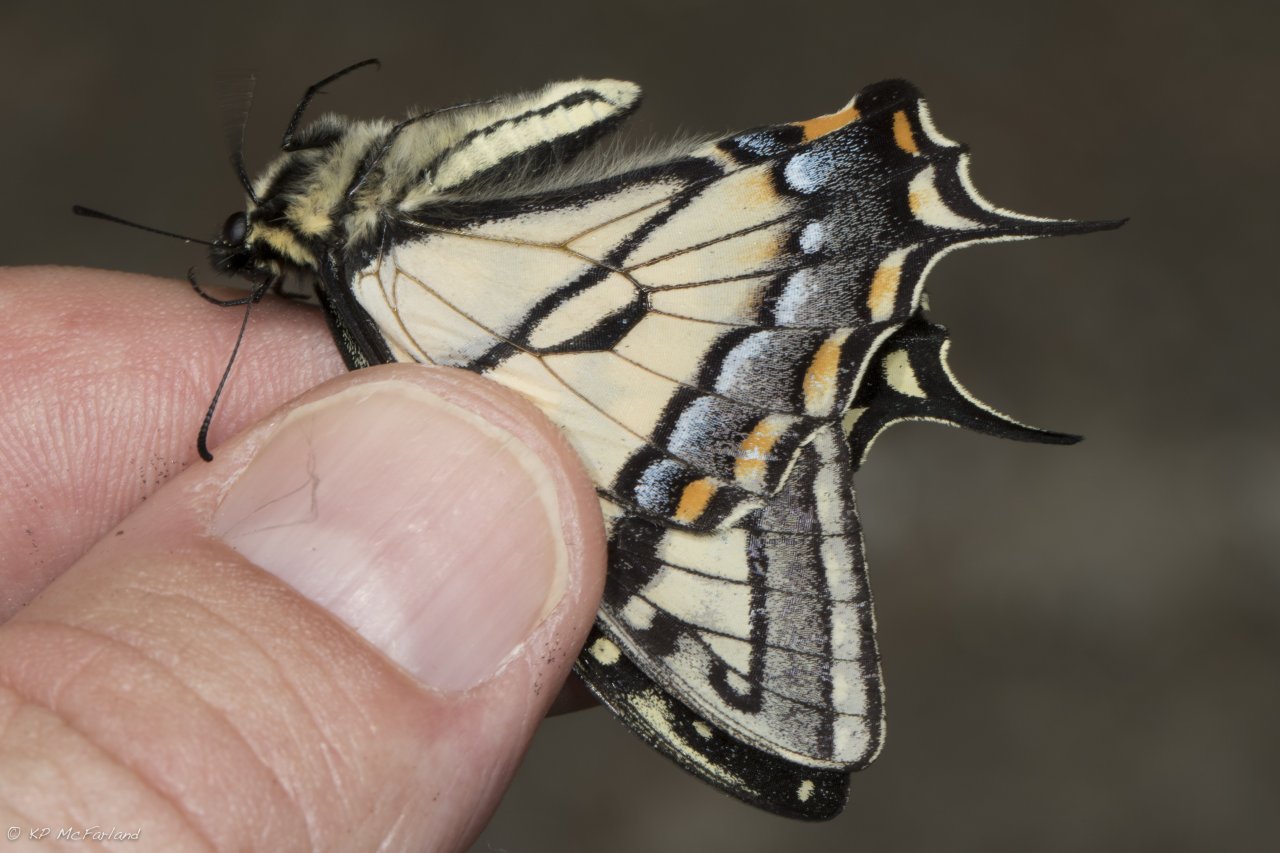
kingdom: Animalia
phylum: Arthropoda
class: Insecta
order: Lepidoptera
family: Papilionidae
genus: Pterourus
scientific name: Pterourus canadensis
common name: Canadian Tiger Swallowtail
